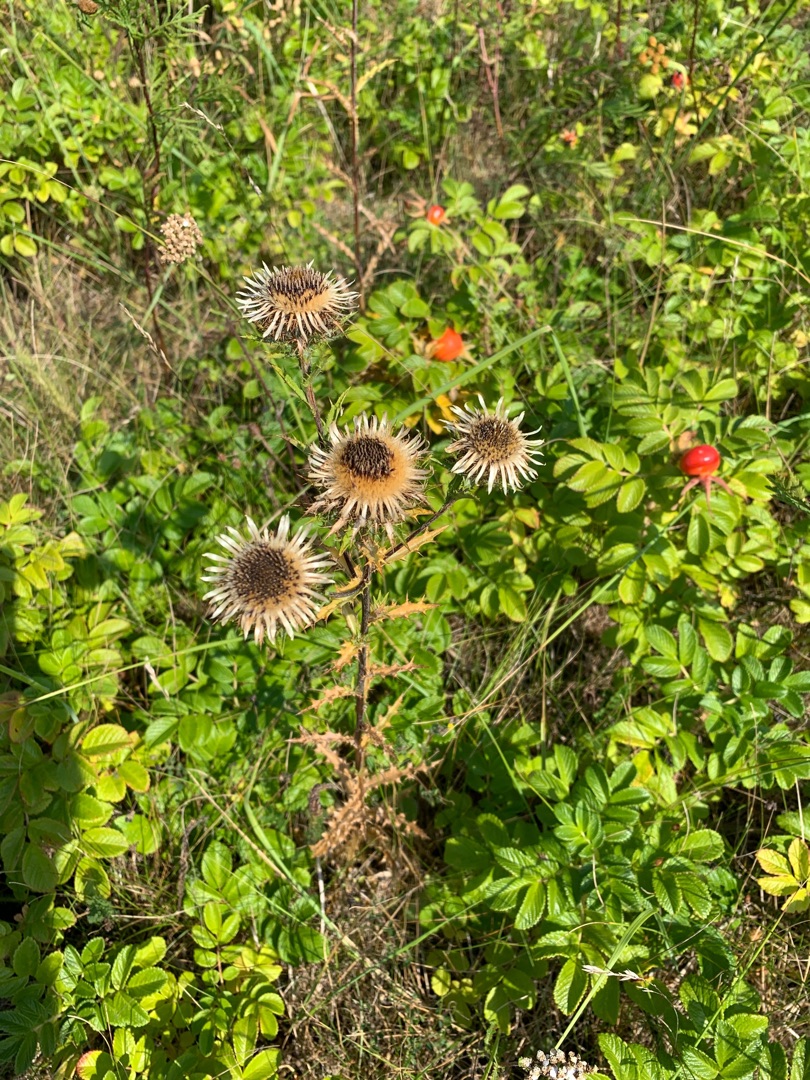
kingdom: Plantae
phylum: Tracheophyta
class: Magnoliopsida
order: Asterales
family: Asteraceae
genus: Carlina
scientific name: Carlina vulgaris
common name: Bakketidsel
